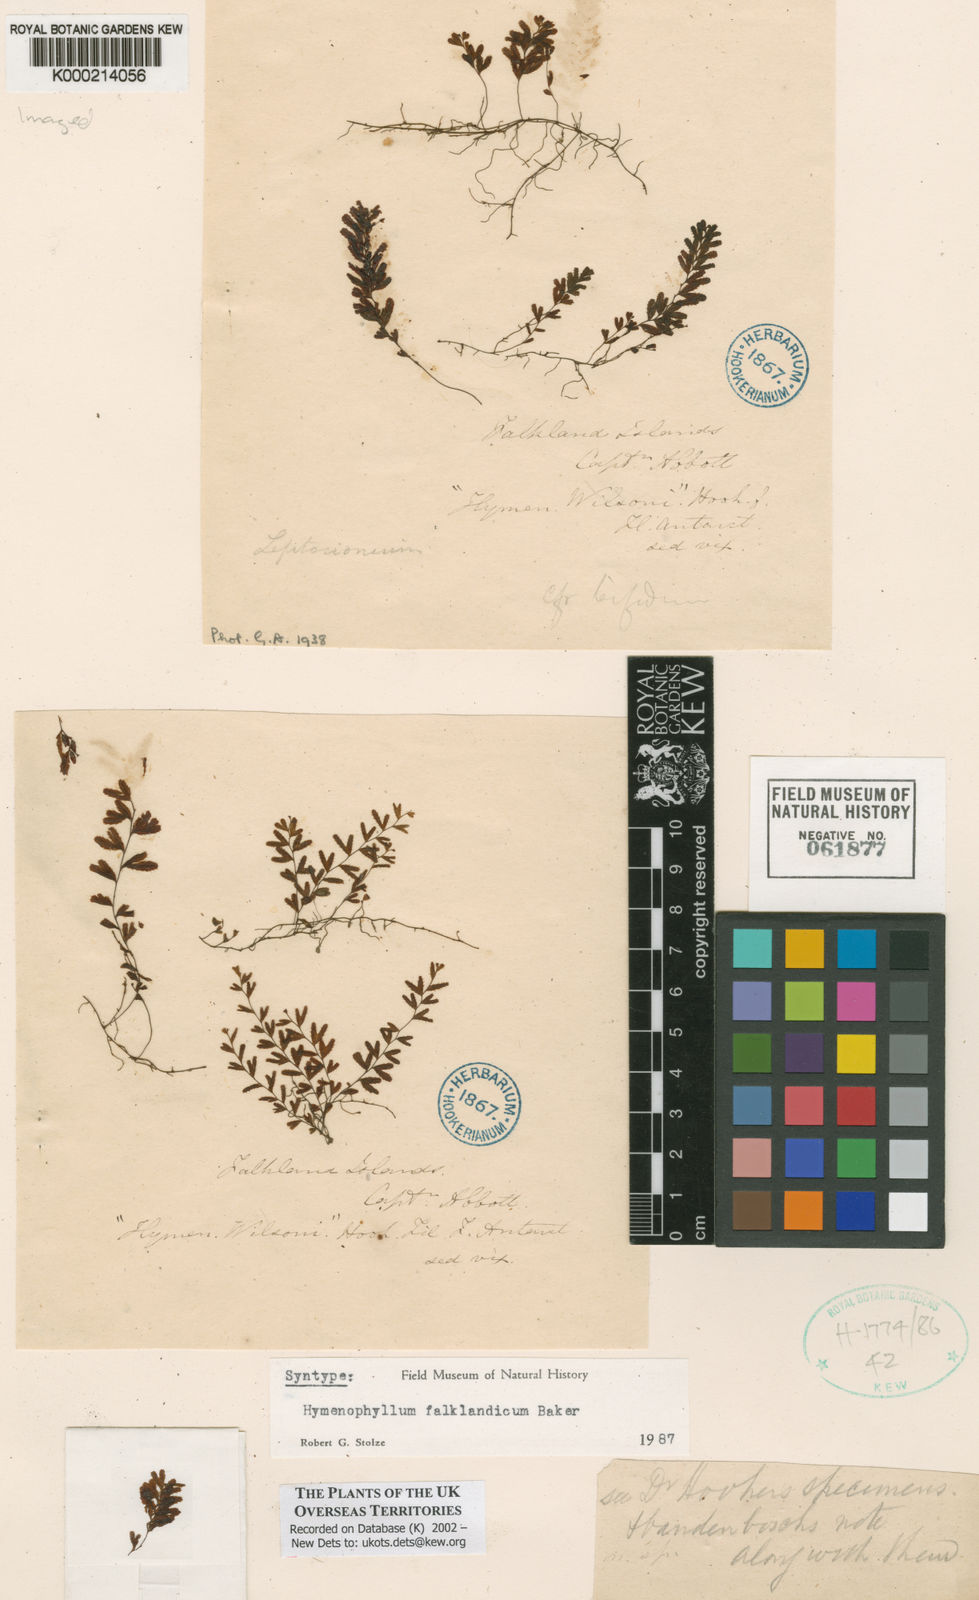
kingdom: Plantae
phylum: Tracheophyta
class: Polypodiopsida
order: Hymenophyllales
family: Hymenophyllaceae
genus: Hymenophyllum
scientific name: Hymenophyllum falklandicum
